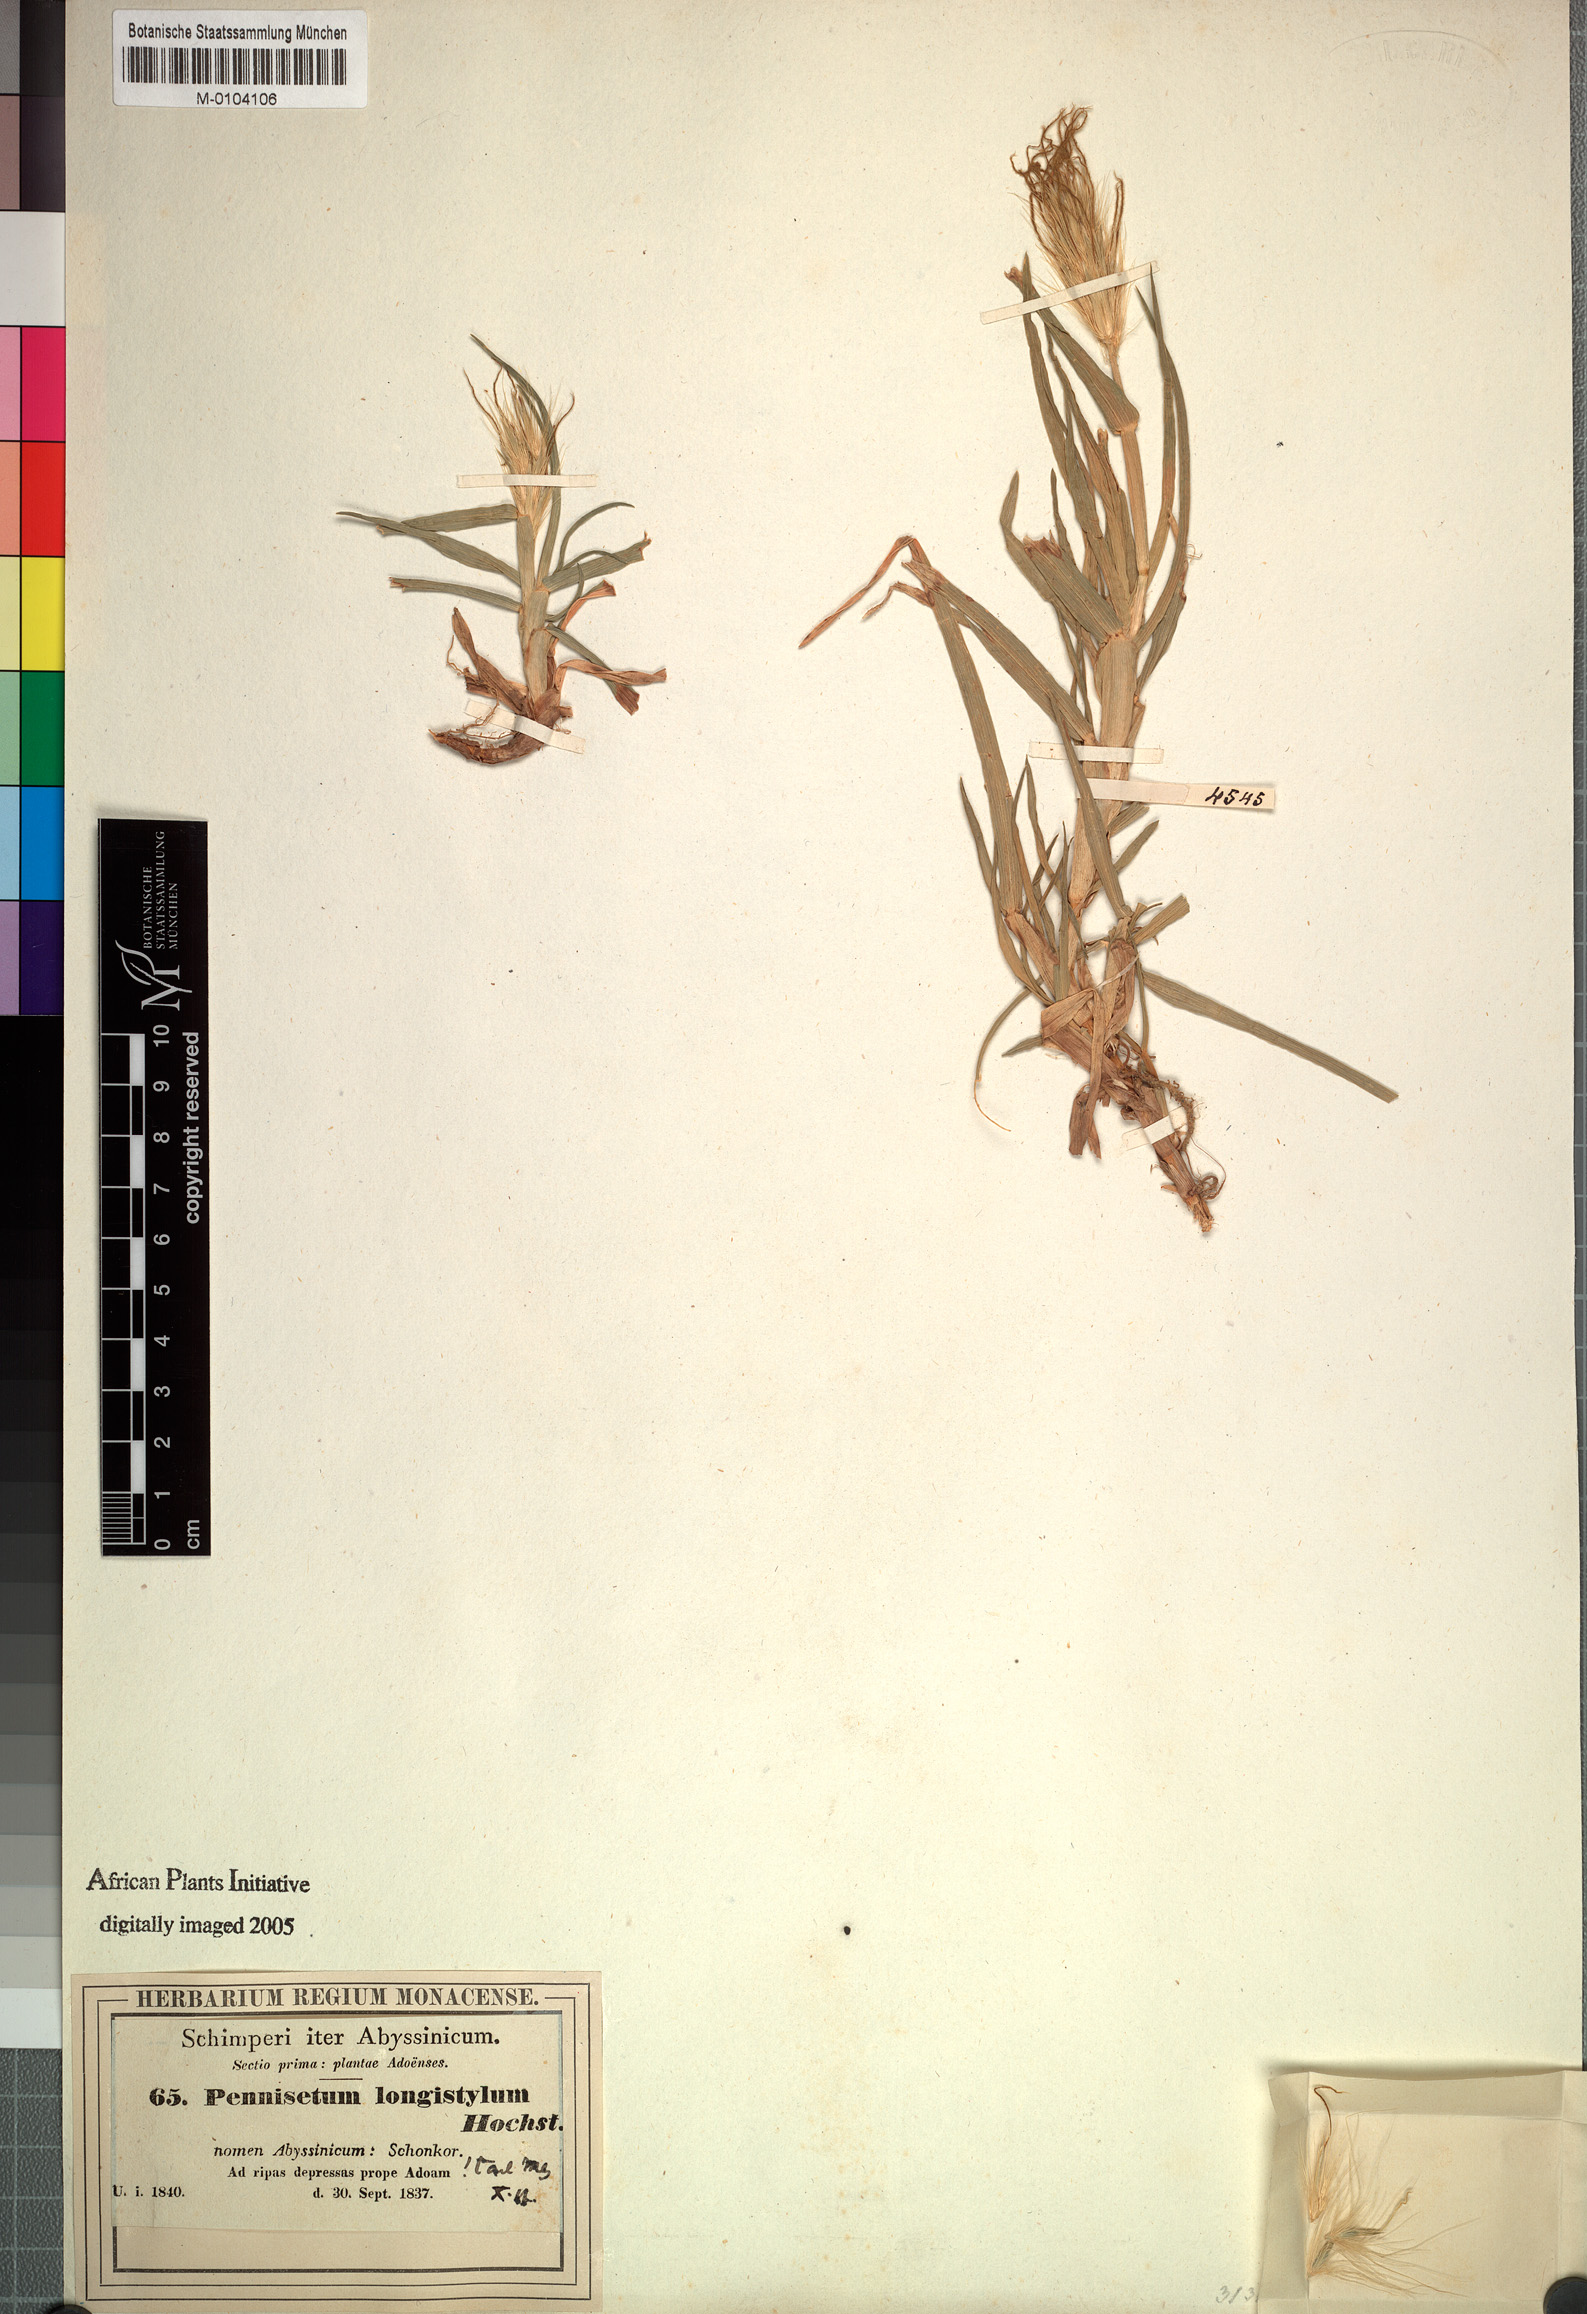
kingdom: Plantae
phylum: Tracheophyta
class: Liliopsida
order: Poales
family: Poaceae
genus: Cenchrus
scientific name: Cenchrus longistylus
